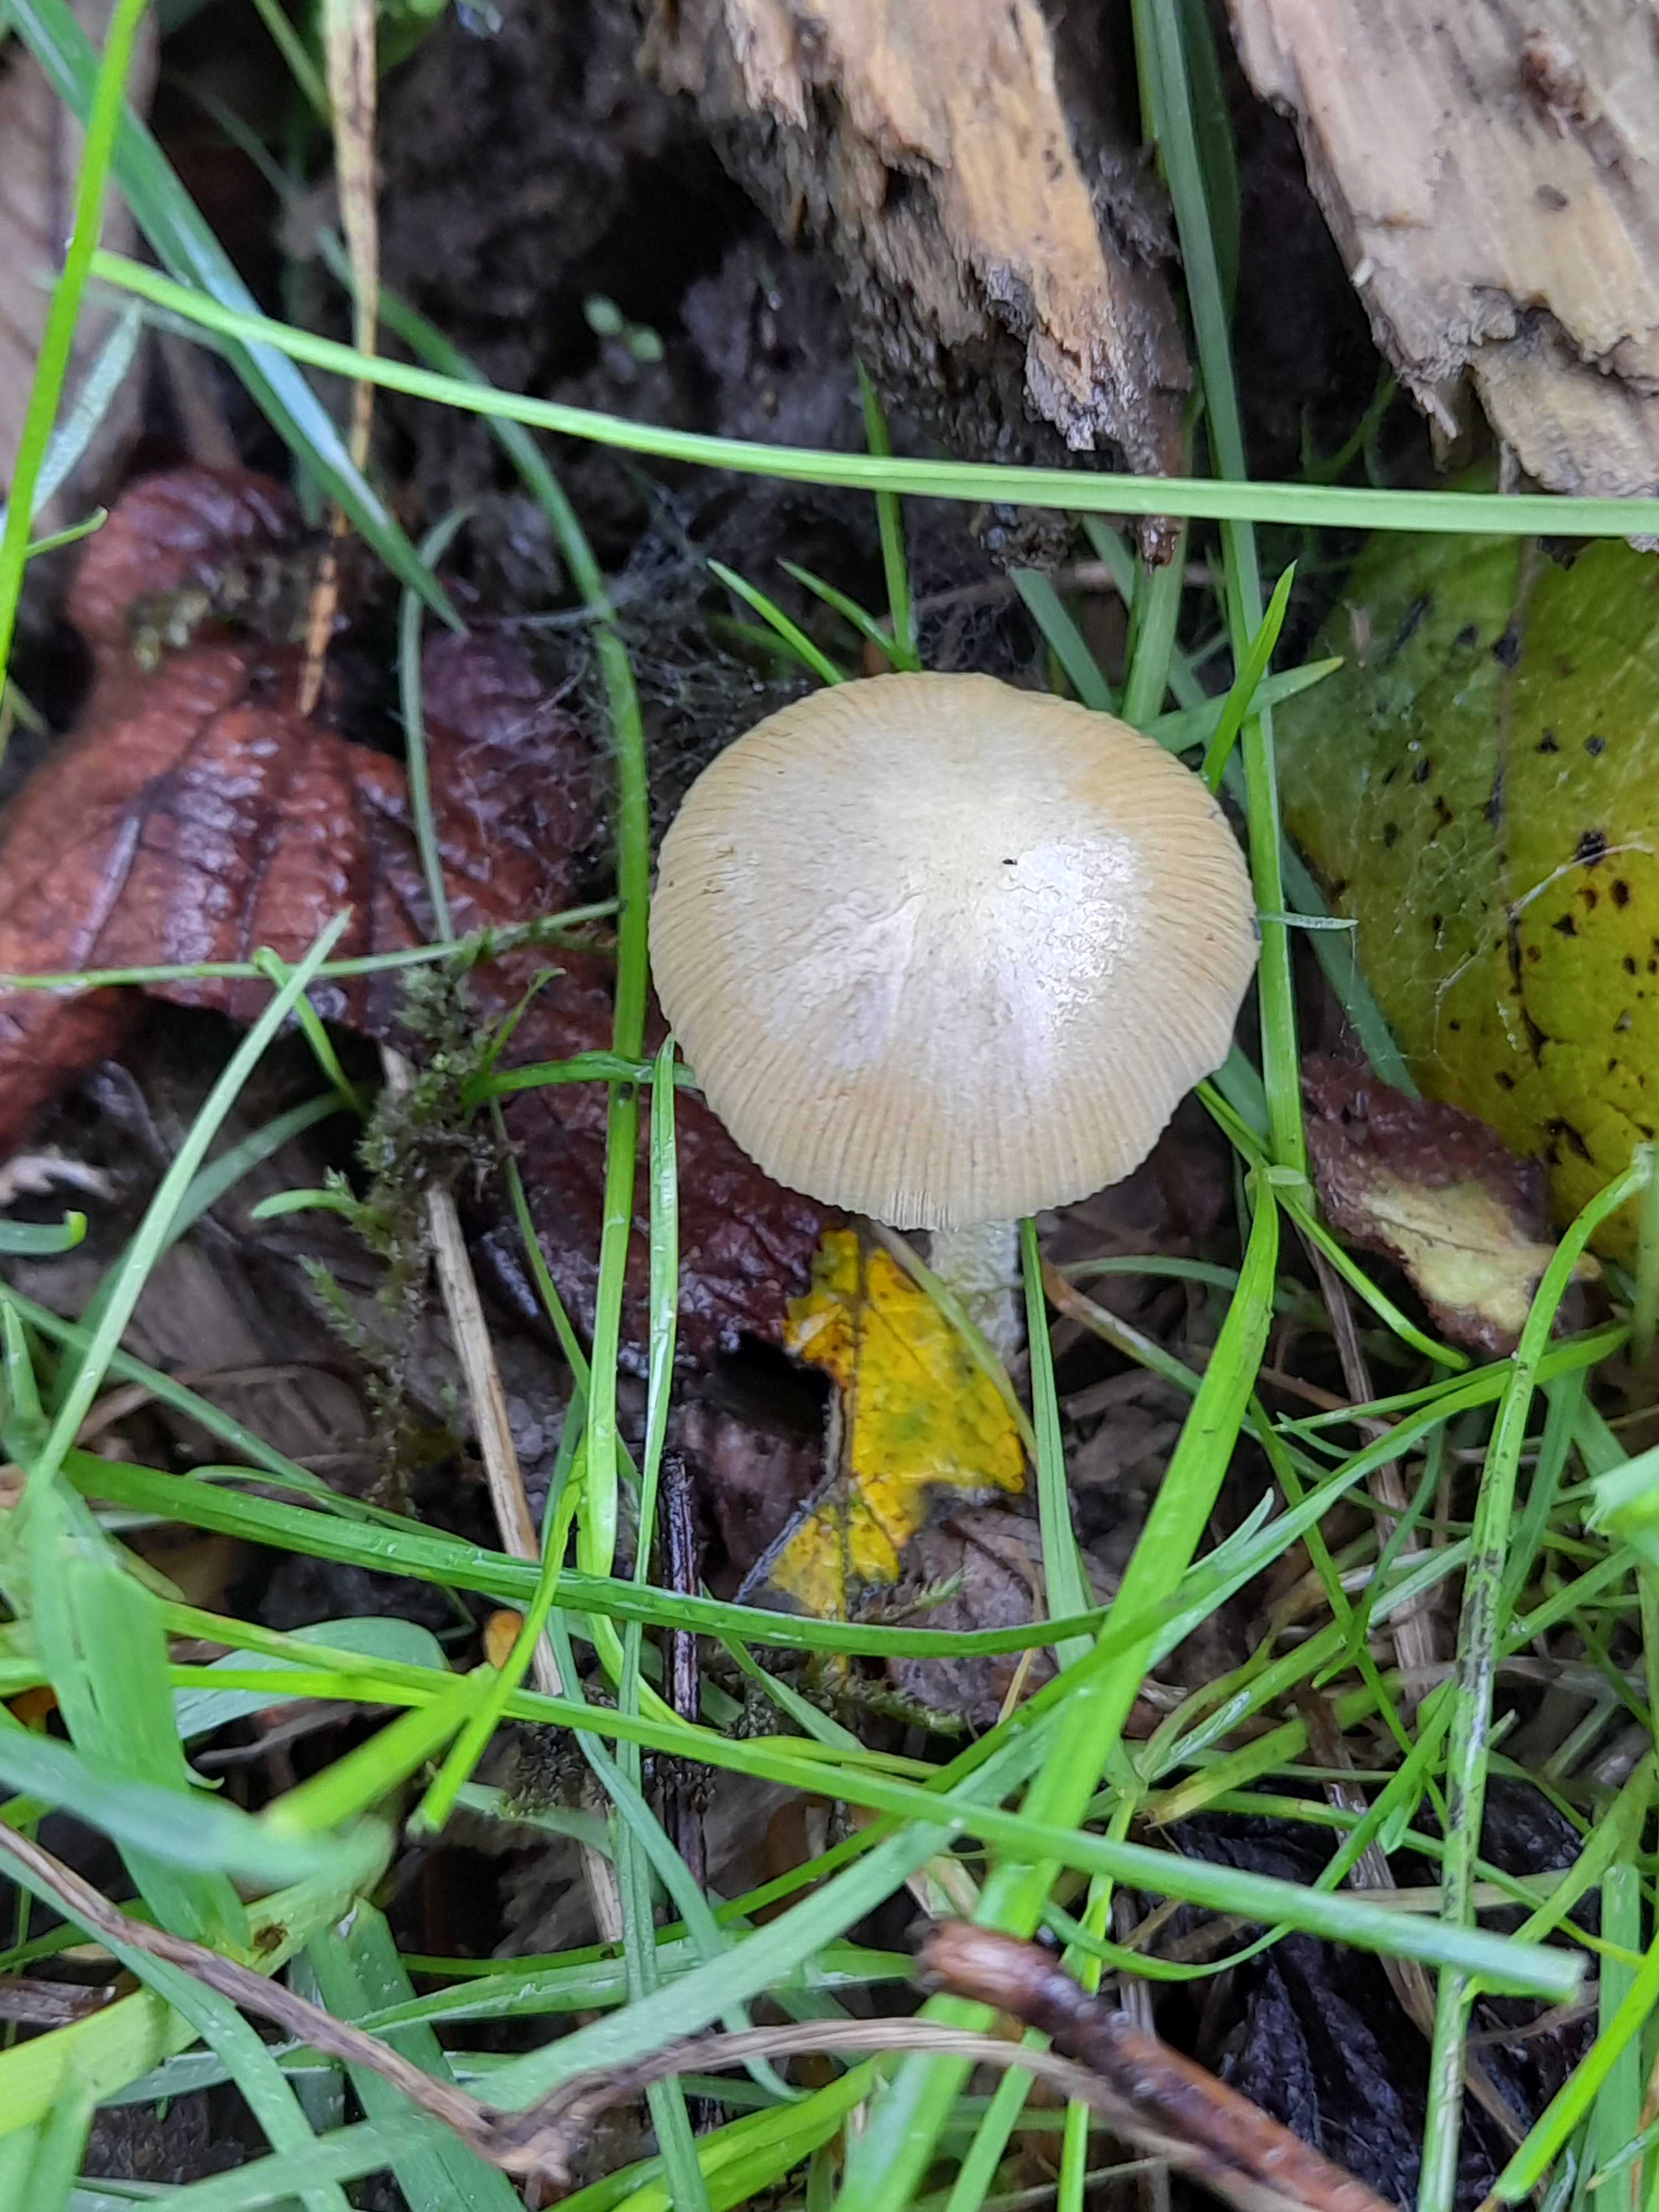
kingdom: Fungi
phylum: Basidiomycota
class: Agaricomycetes
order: Agaricales
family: Bolbitiaceae
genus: Bolbitius
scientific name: Bolbitius titubans
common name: almindelig gulhat
